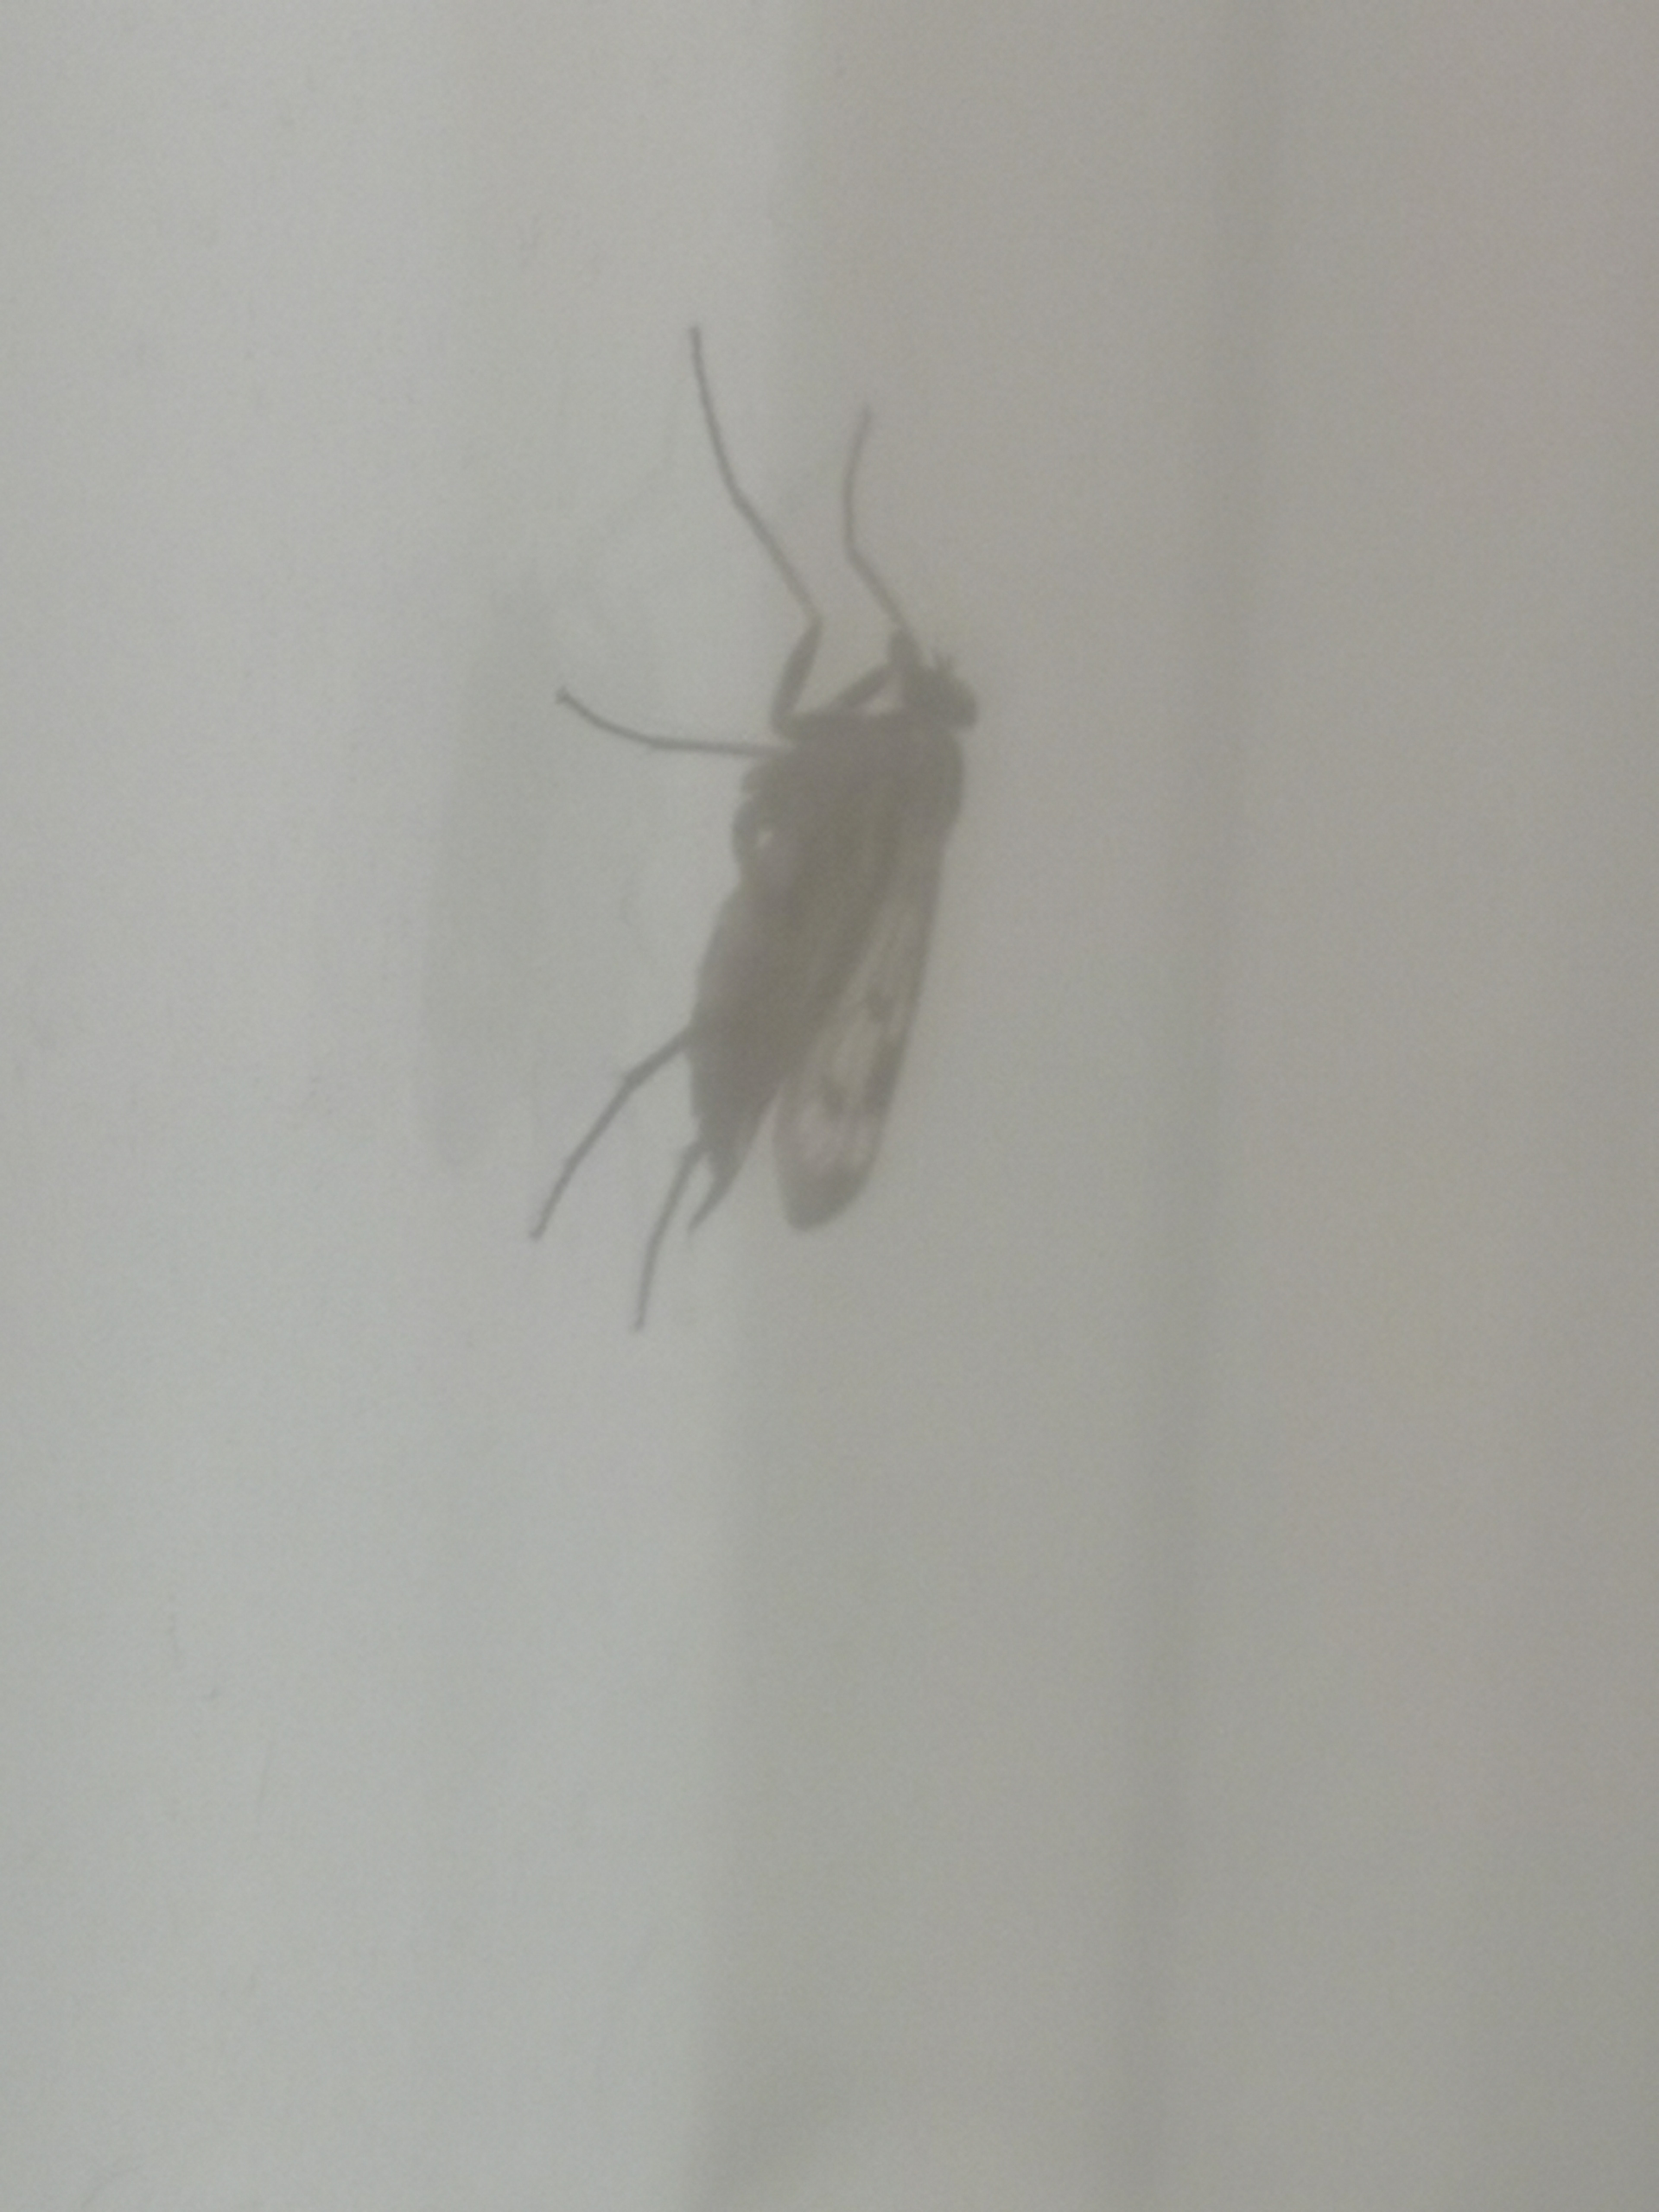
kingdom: Animalia
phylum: Arthropoda
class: Insecta
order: Diptera
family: Rhagionidae
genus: Rhagio
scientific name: Rhagio scolopacea
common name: Almindelig sneppeflue
